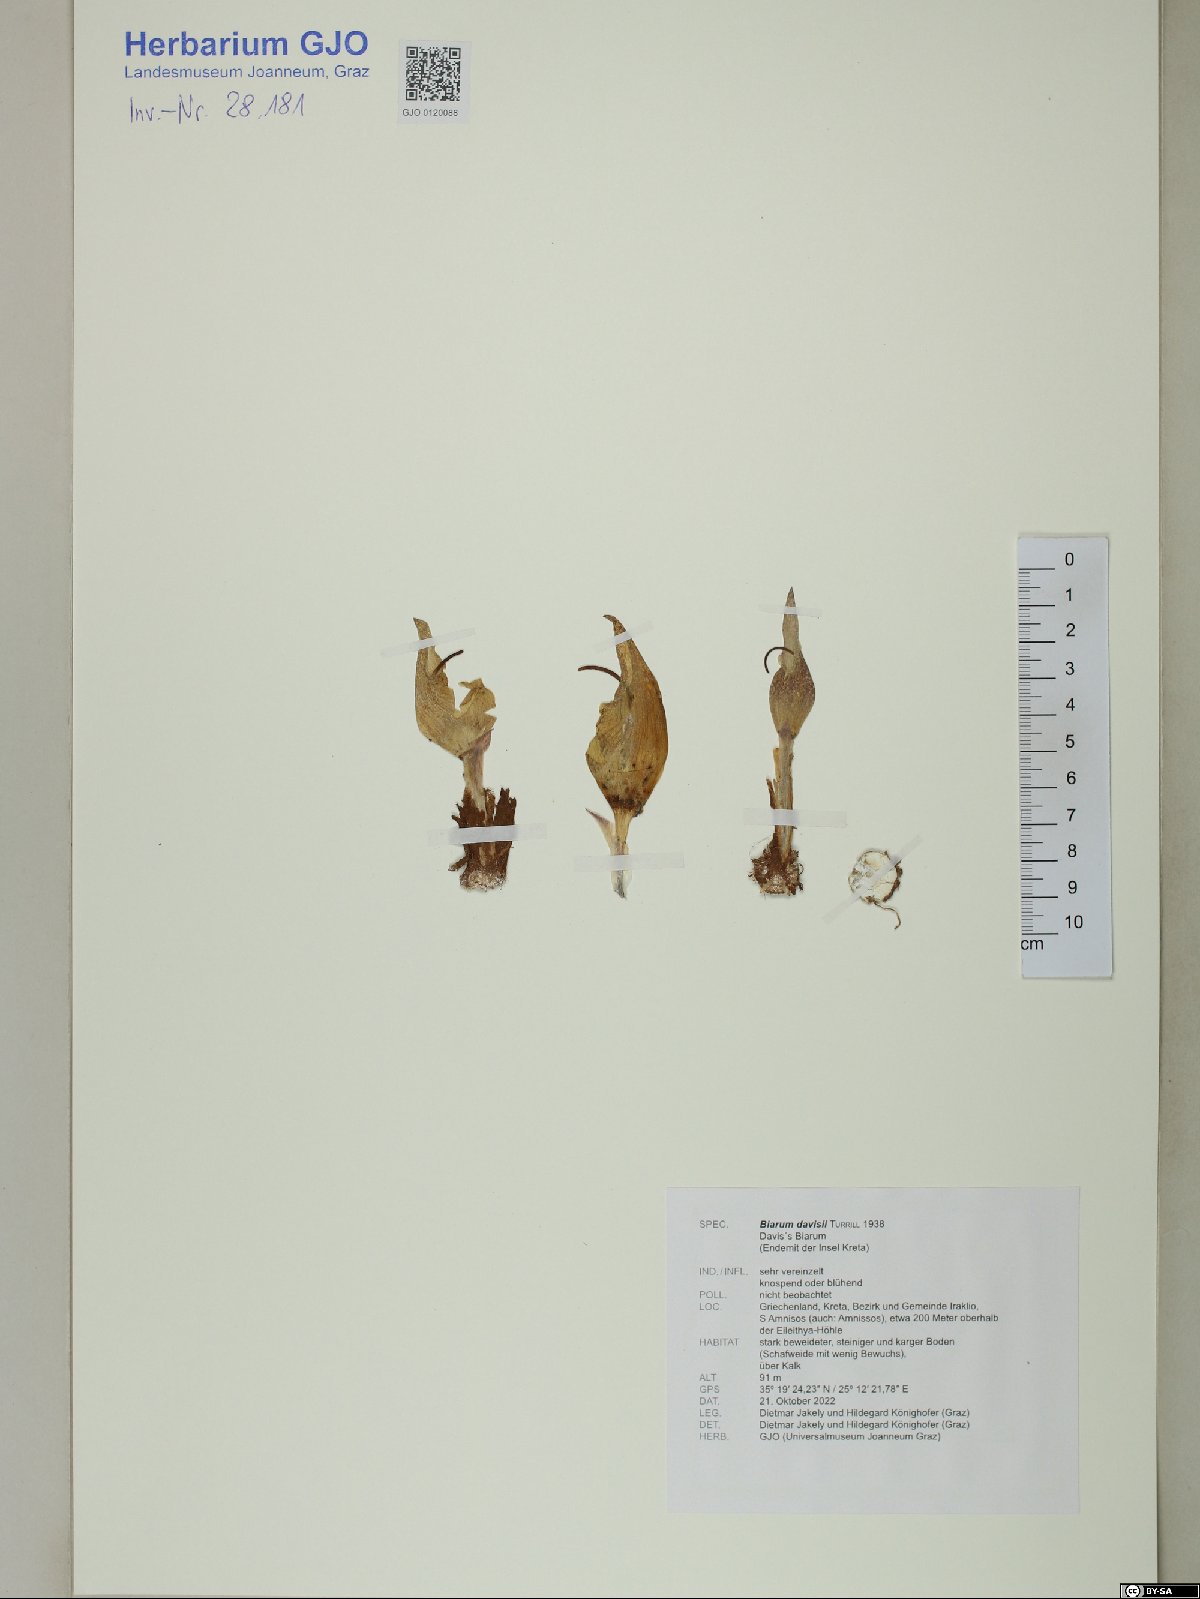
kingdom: Plantae
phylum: Tracheophyta
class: Liliopsida
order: Alismatales
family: Araceae
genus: Biarum
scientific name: Biarum davisii
